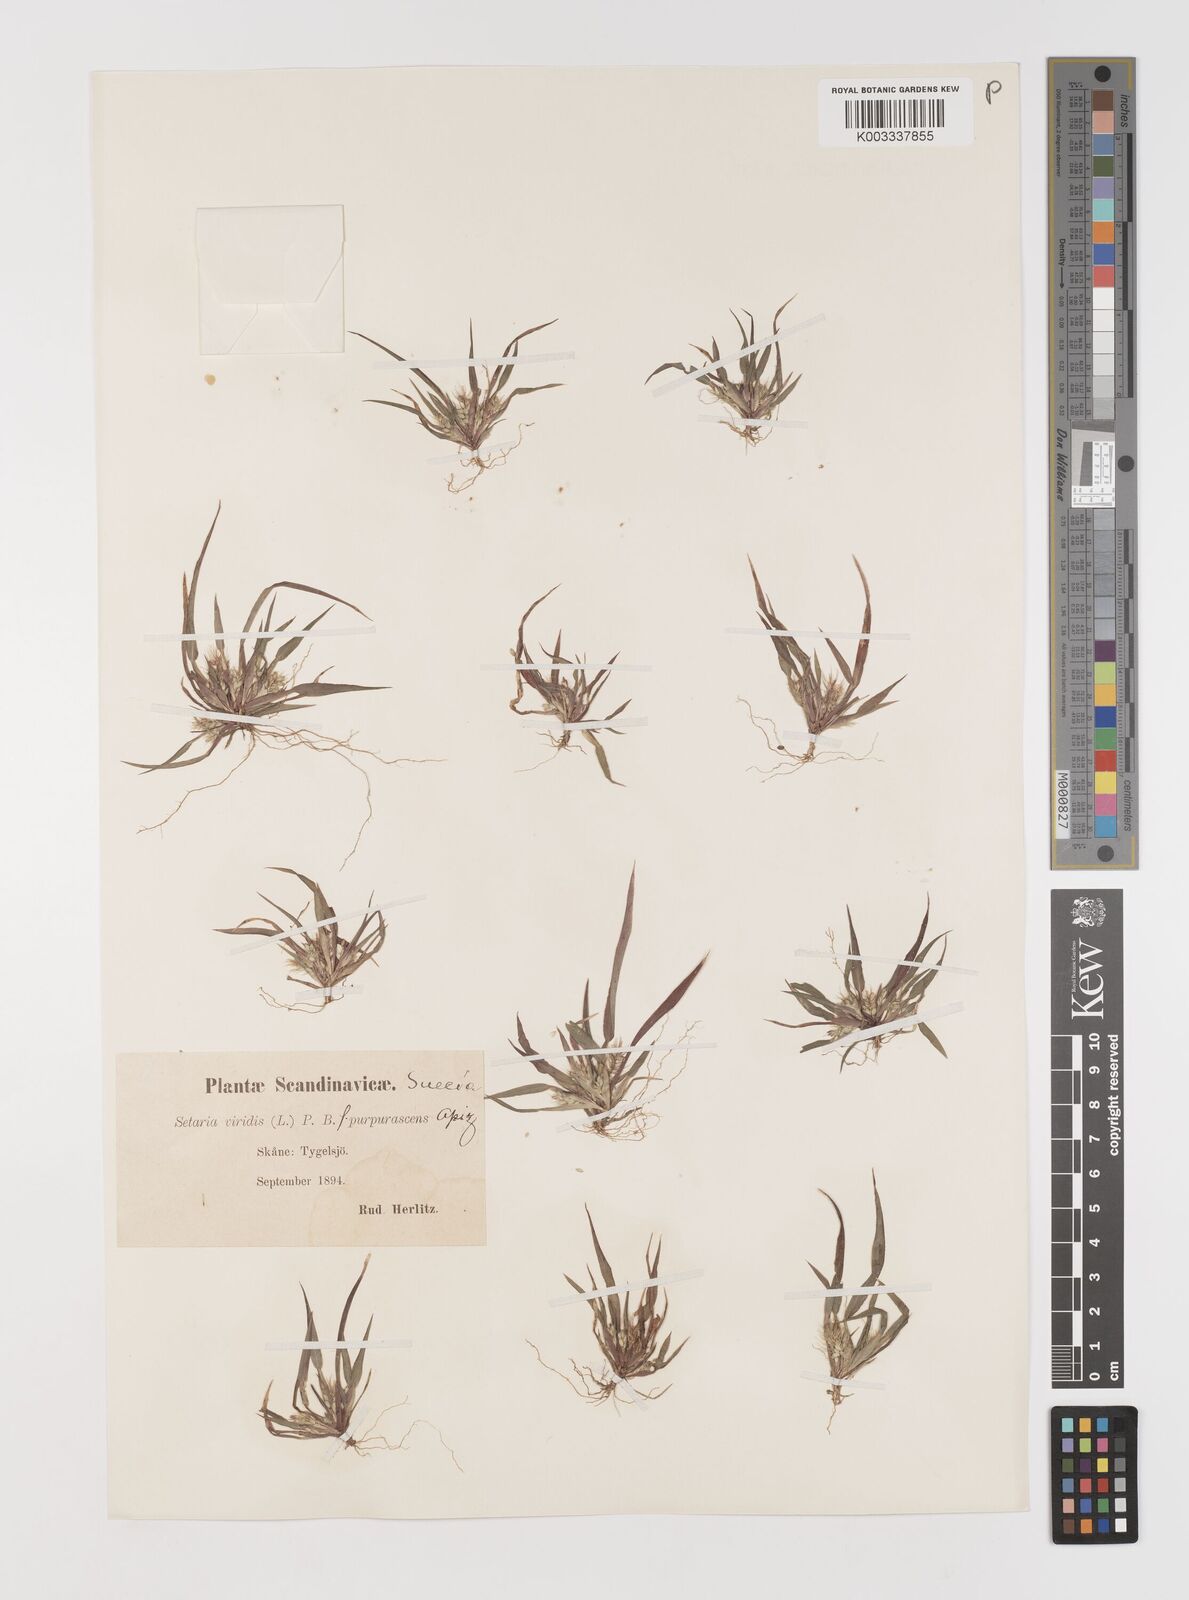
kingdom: Plantae
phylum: Tracheophyta
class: Liliopsida
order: Poales
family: Poaceae
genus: Setaria
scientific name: Setaria viridis
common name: Green bristlegrass
